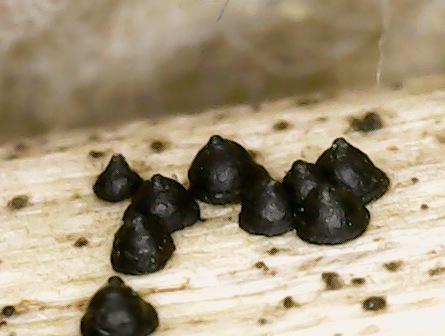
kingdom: Fungi
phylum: Ascomycota
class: Dothideomycetes
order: Pleosporales
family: Leptosphaeriaceae
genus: Leptosphaeria
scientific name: Leptosphaeria acuta
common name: spids kulkegle
